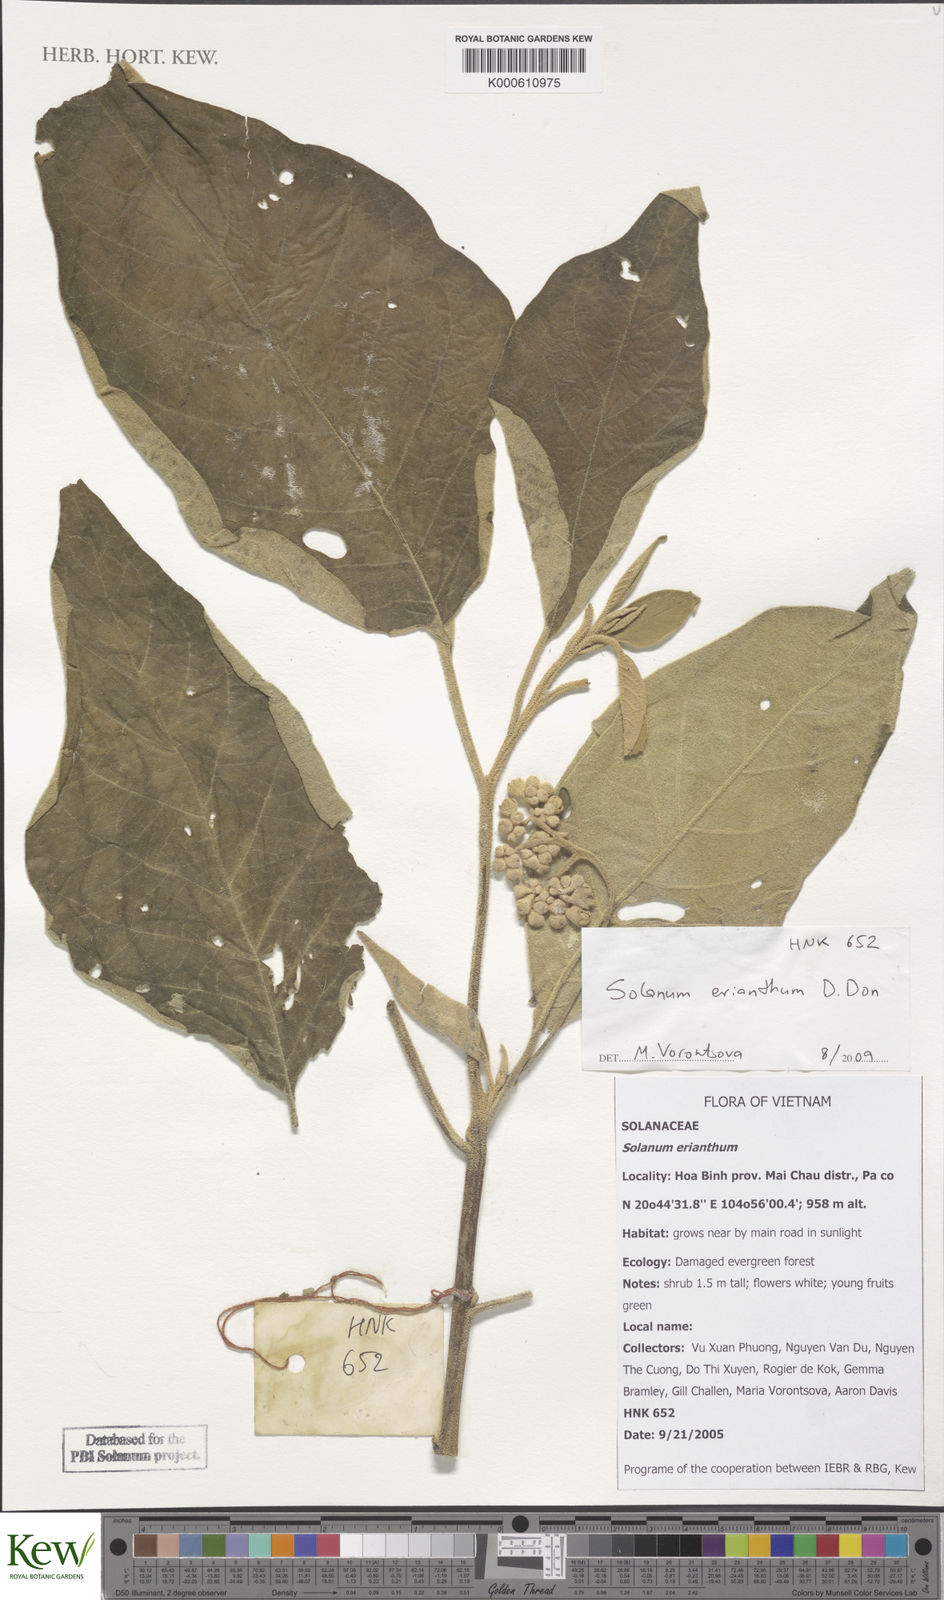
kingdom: Plantae
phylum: Tracheophyta
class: Magnoliopsida
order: Solanales
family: Solanaceae
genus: Solanum
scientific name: Solanum erianthum
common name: Tobacco-tree
